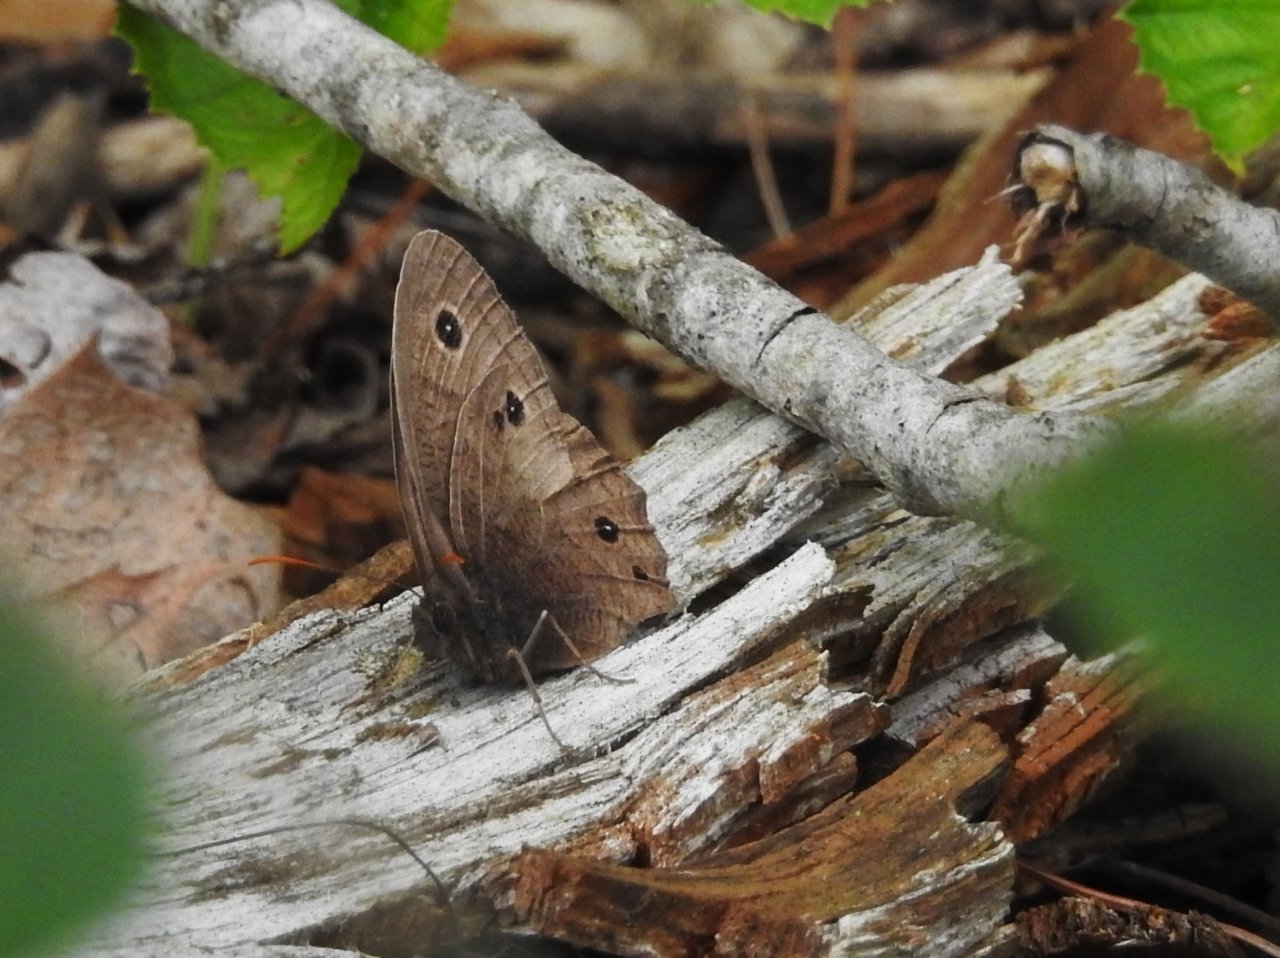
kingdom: Animalia
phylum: Arthropoda
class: Insecta
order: Lepidoptera
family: Nymphalidae
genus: Euptychia
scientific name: Euptychia cymela
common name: Little Wood Satyr
